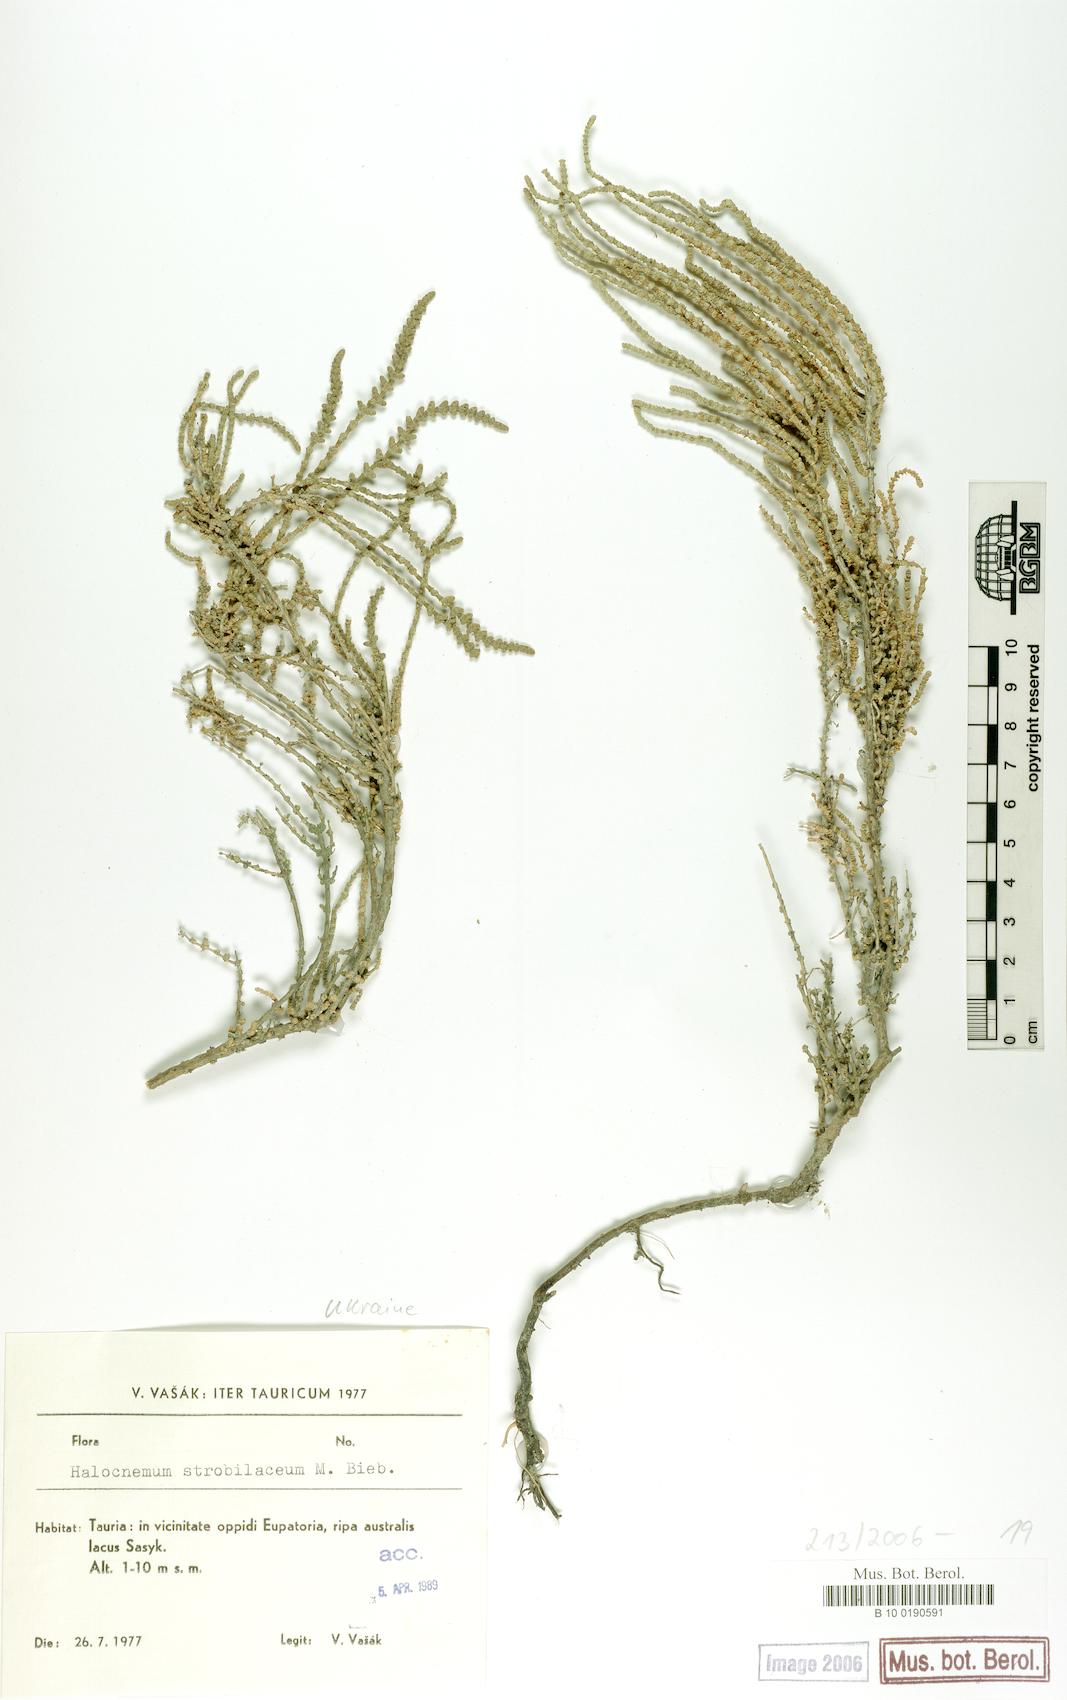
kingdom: Plantae
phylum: Tracheophyta
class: Magnoliopsida
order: Caryophyllales
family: Amaranthaceae
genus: Halocnemum
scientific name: Halocnemum strobilaceum
